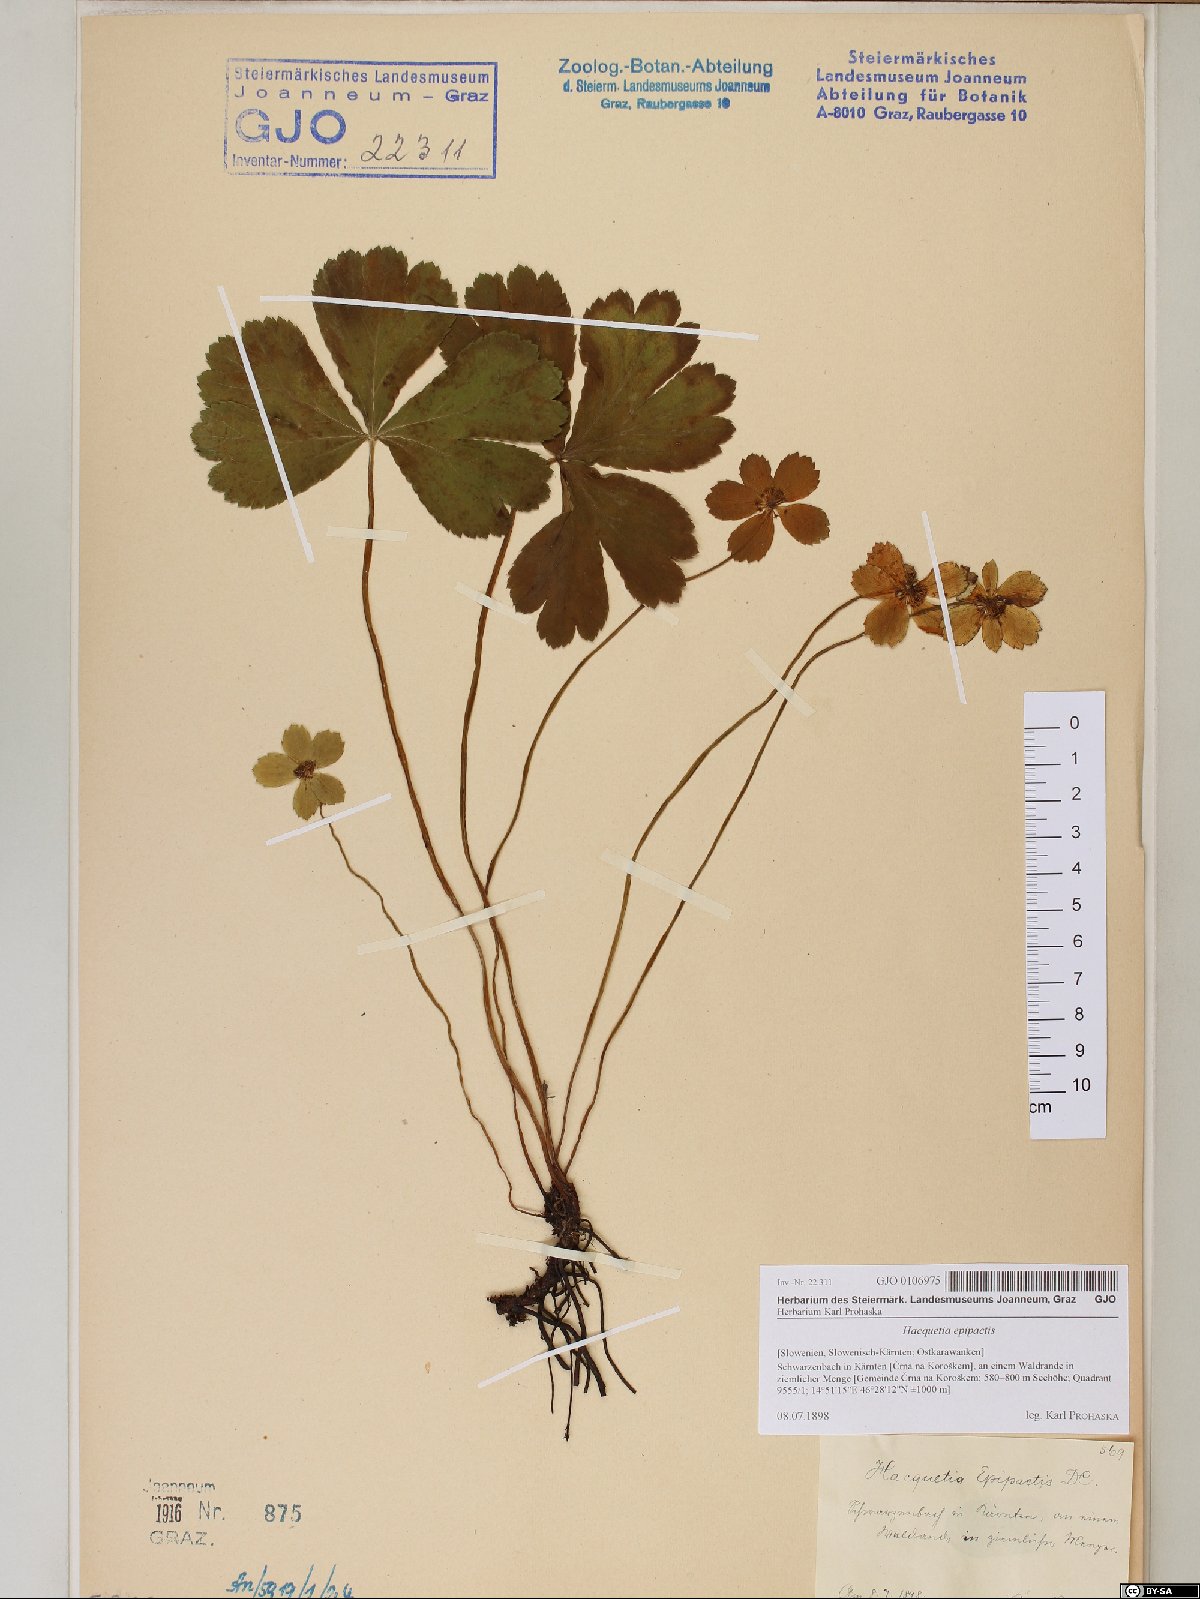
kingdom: Plantae
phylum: Tracheophyta
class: Magnoliopsida
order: Apiales
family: Apiaceae
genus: Sanicula
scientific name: Sanicula epipactis
